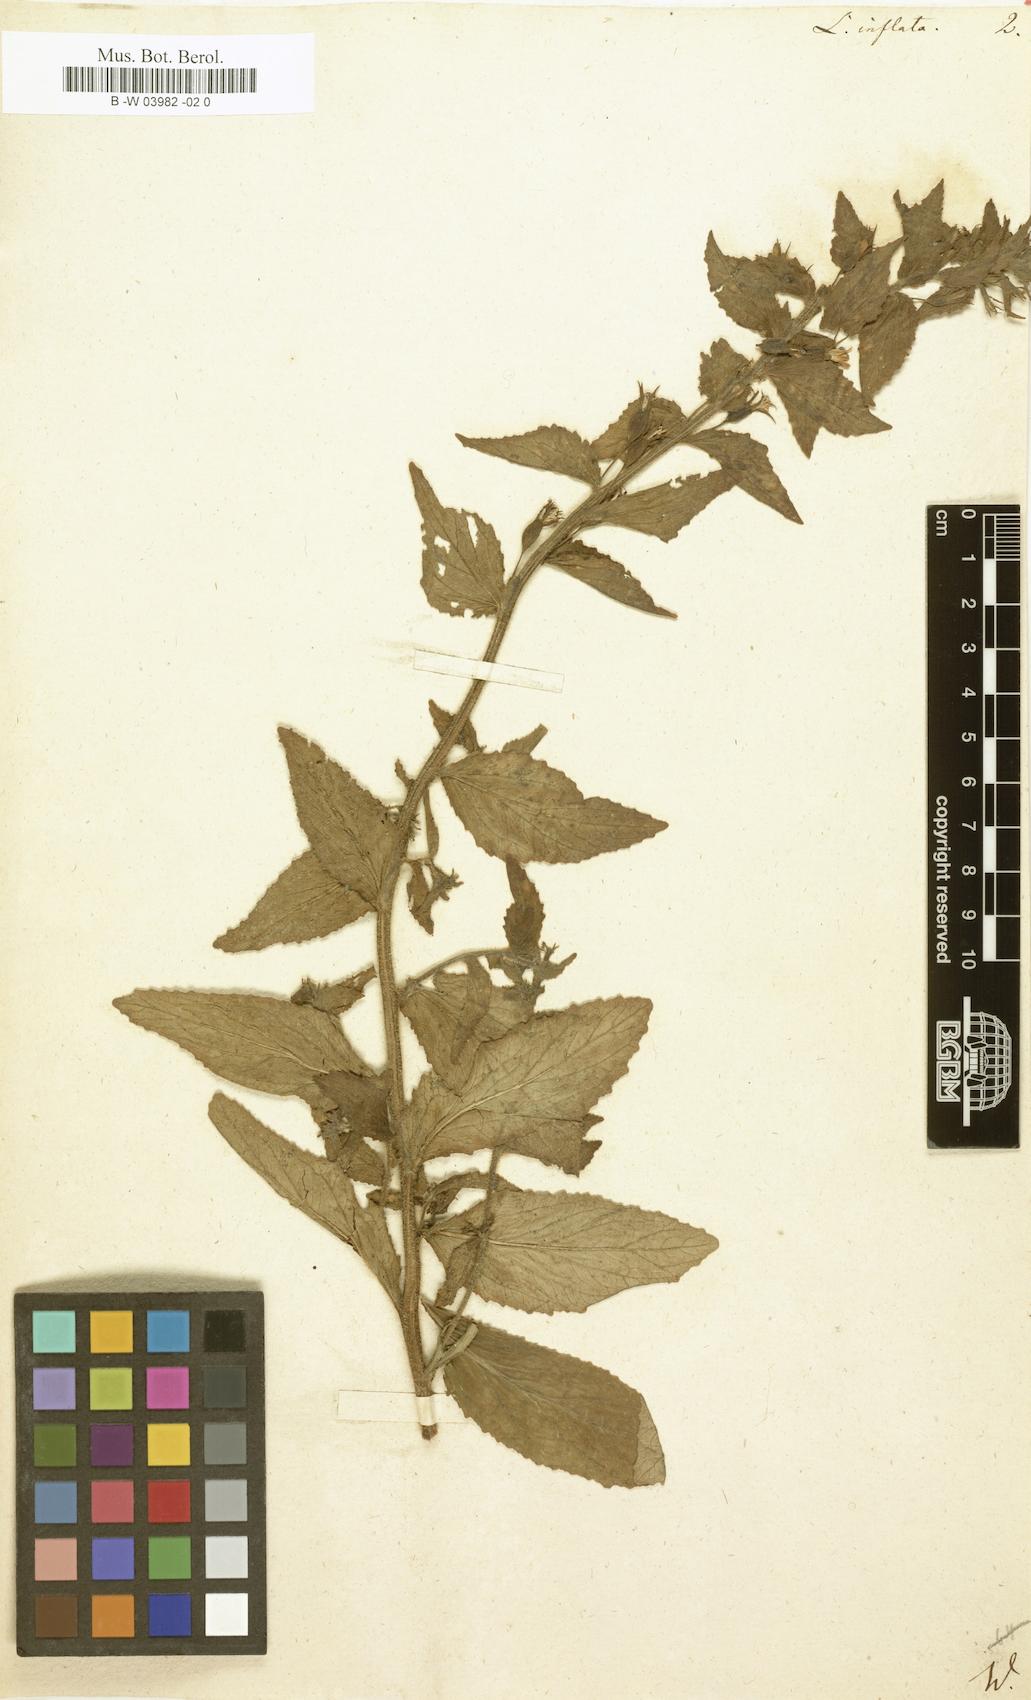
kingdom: Plantae
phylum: Tracheophyta
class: Magnoliopsida
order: Asterales
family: Campanulaceae
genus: Lobelia
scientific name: Lobelia inflata
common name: Indian tobacco
